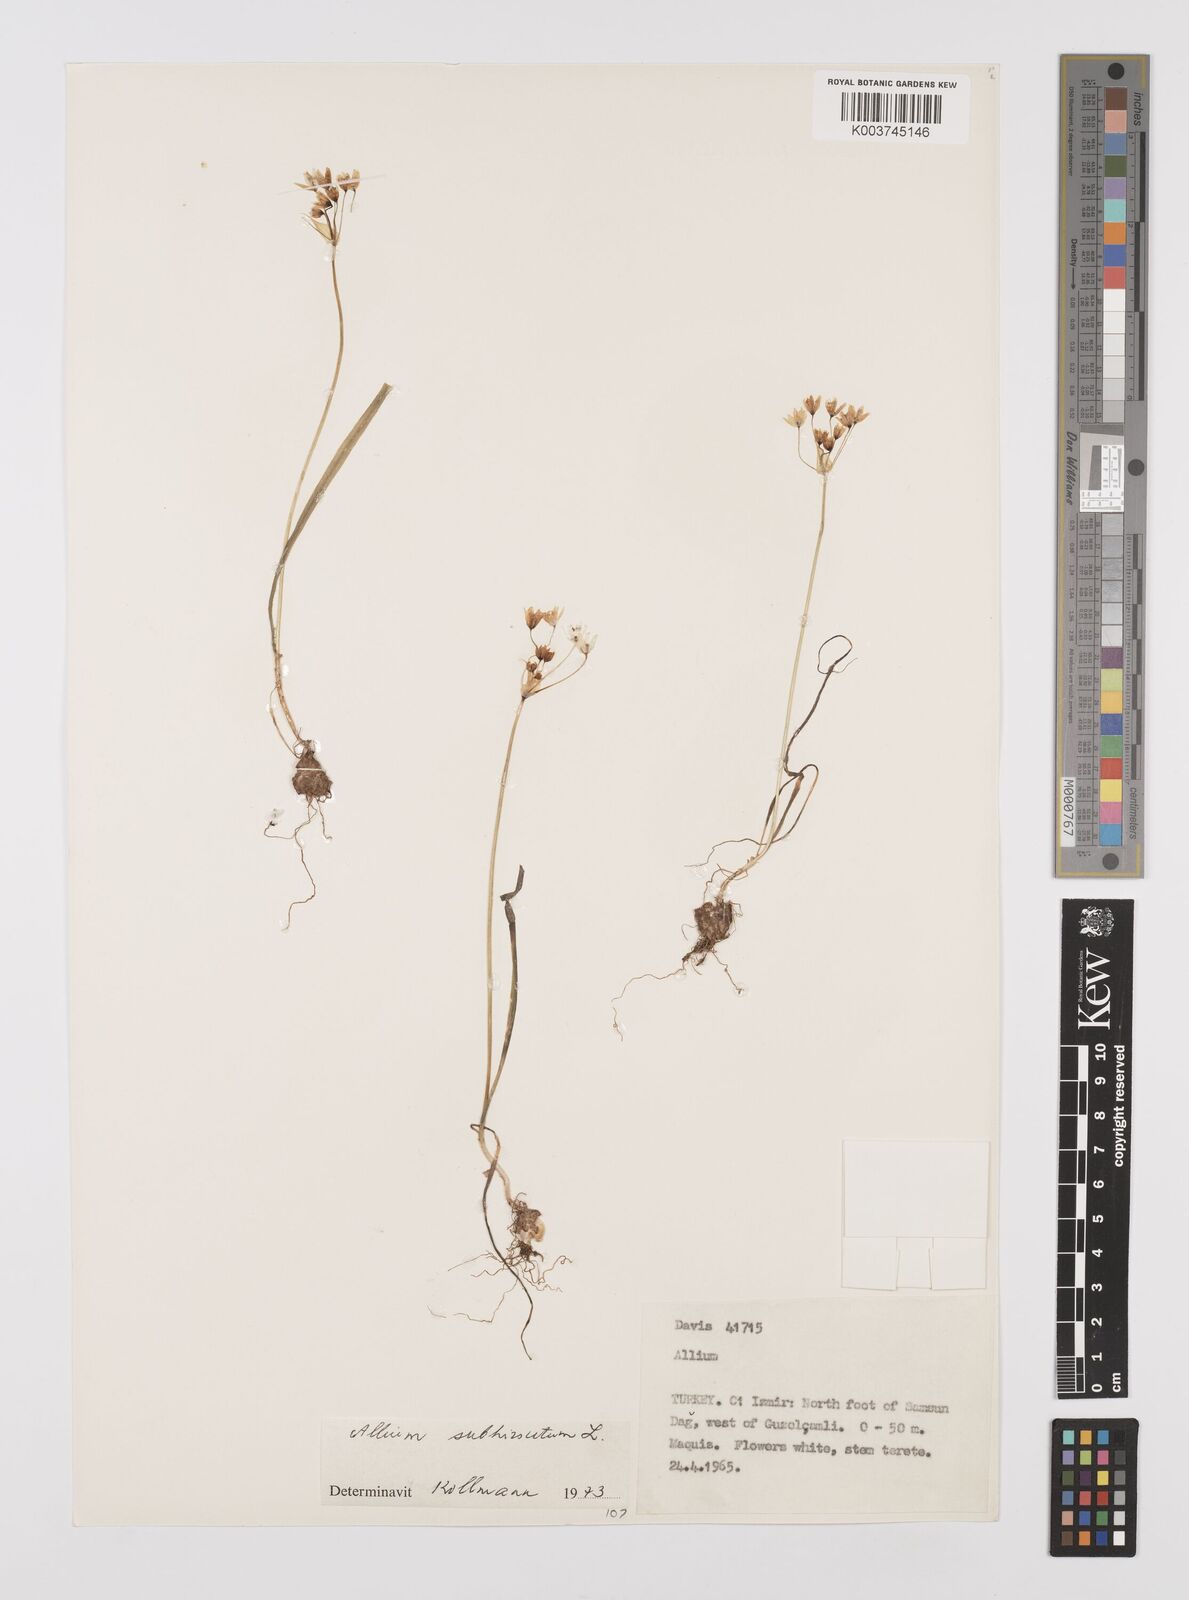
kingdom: Plantae
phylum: Tracheophyta
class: Liliopsida
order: Asparagales
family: Amaryllidaceae
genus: Allium
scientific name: Allium subhirsutum
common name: Hairy garlic
